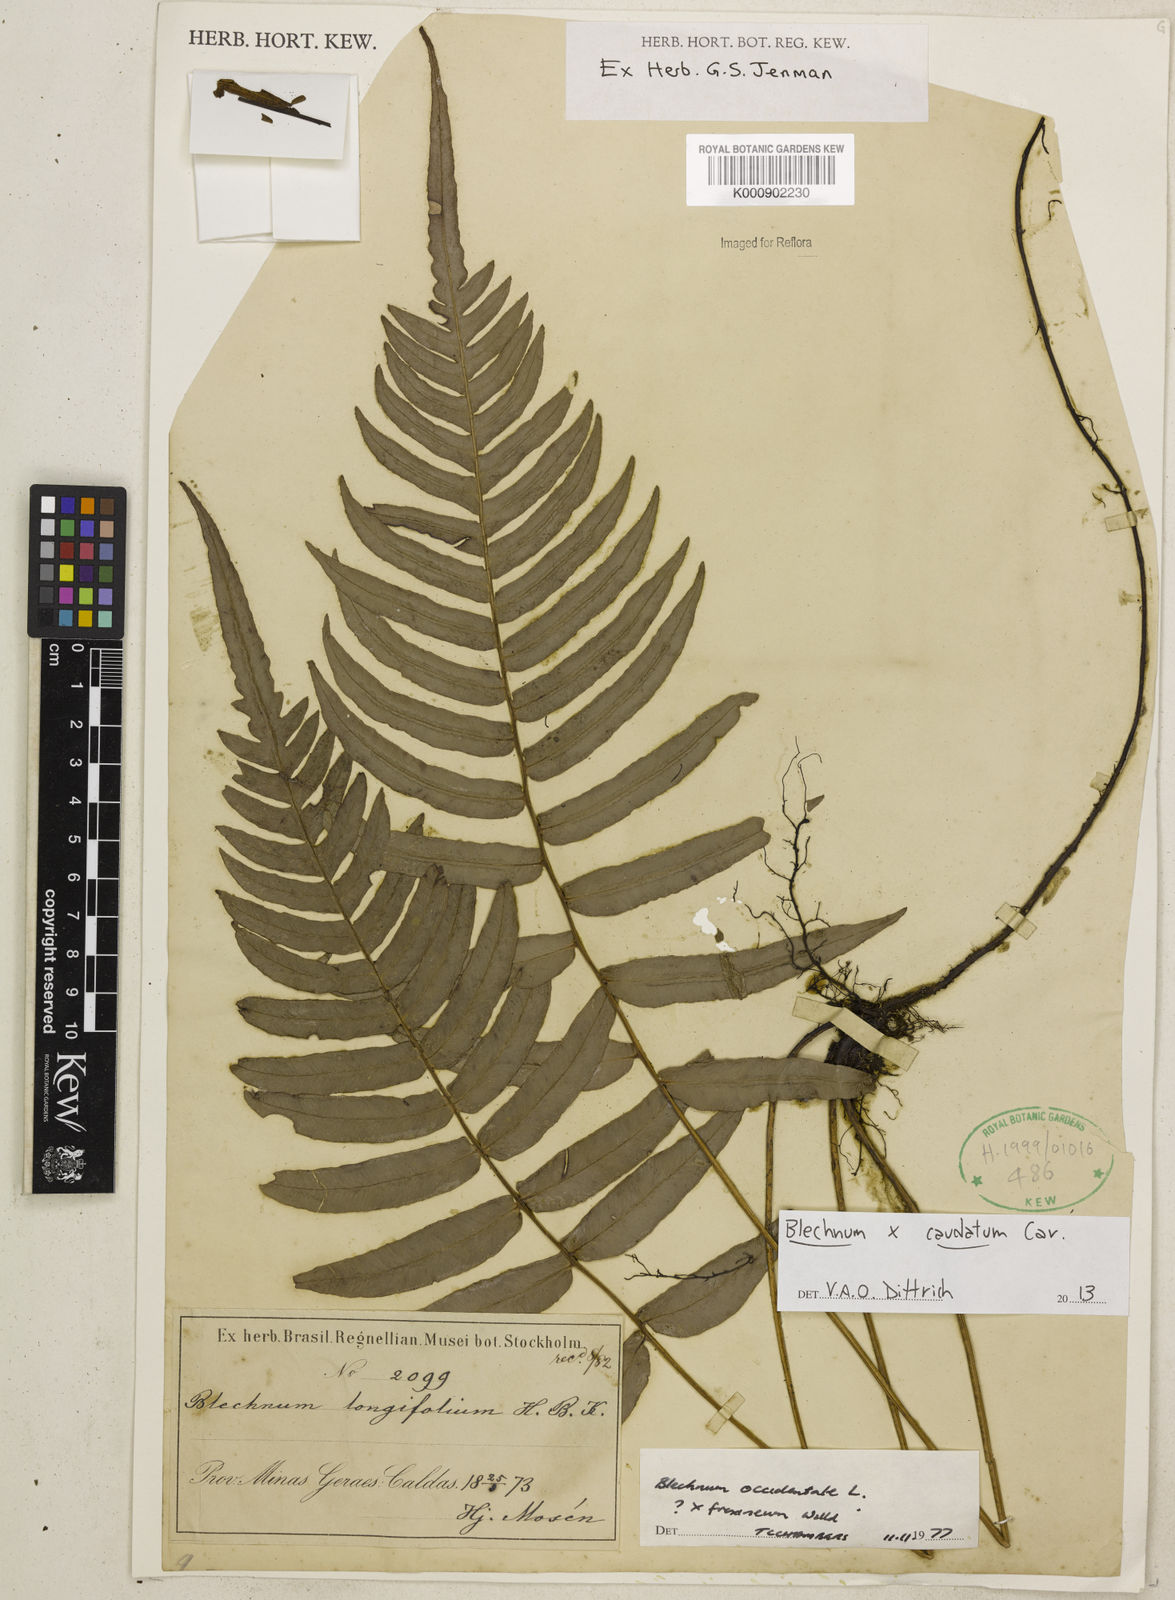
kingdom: Plantae
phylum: Tracheophyta
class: Polypodiopsida
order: Polypodiales
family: Blechnaceae
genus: Blechnum
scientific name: Blechnum gracile
